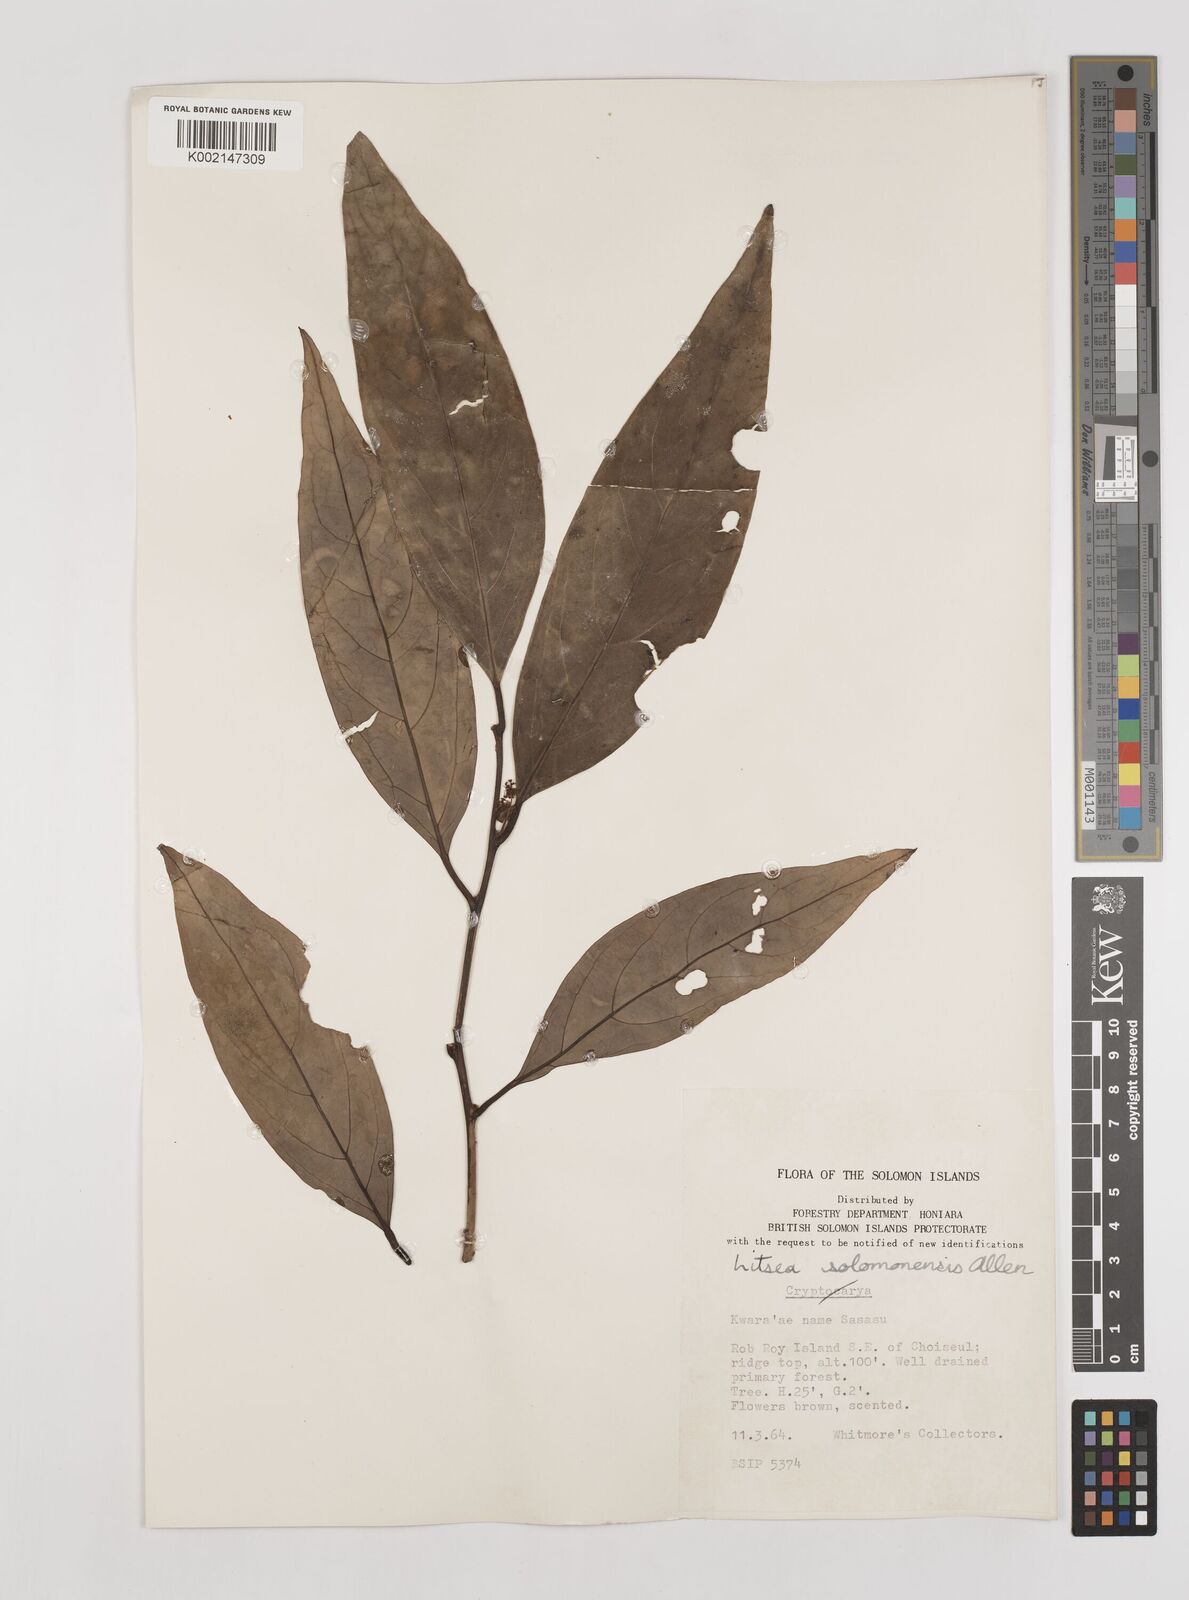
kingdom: Plantae
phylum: Tracheophyta
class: Magnoliopsida
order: Laurales
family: Lauraceae
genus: Litsea
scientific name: Litsea timoriana
